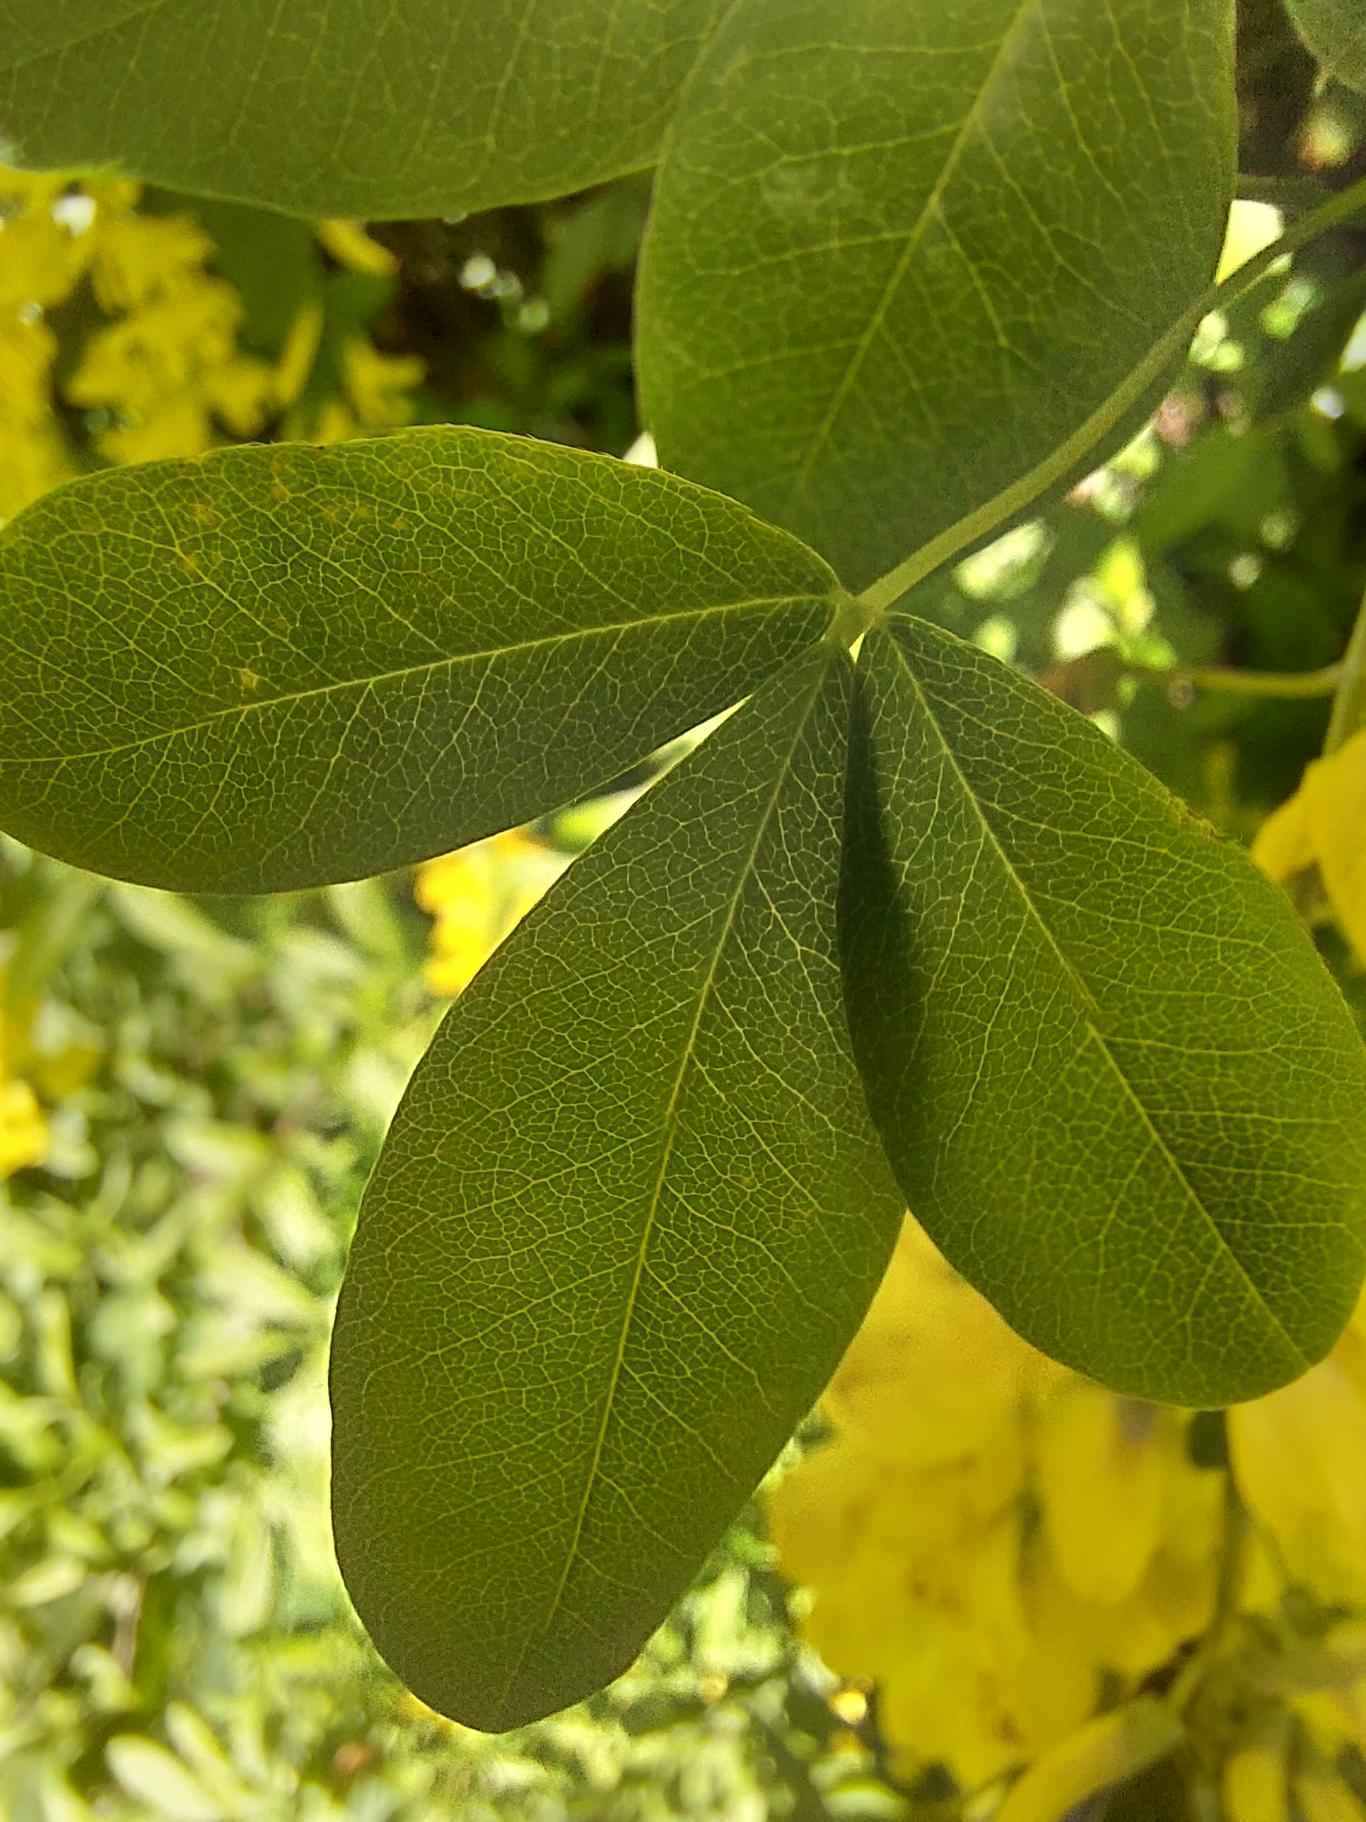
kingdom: Plantae
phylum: Tracheophyta
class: Magnoliopsida
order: Fabales
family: Fabaceae
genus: Laburnum
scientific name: Laburnum alpinum
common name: Alpe-guldregn
